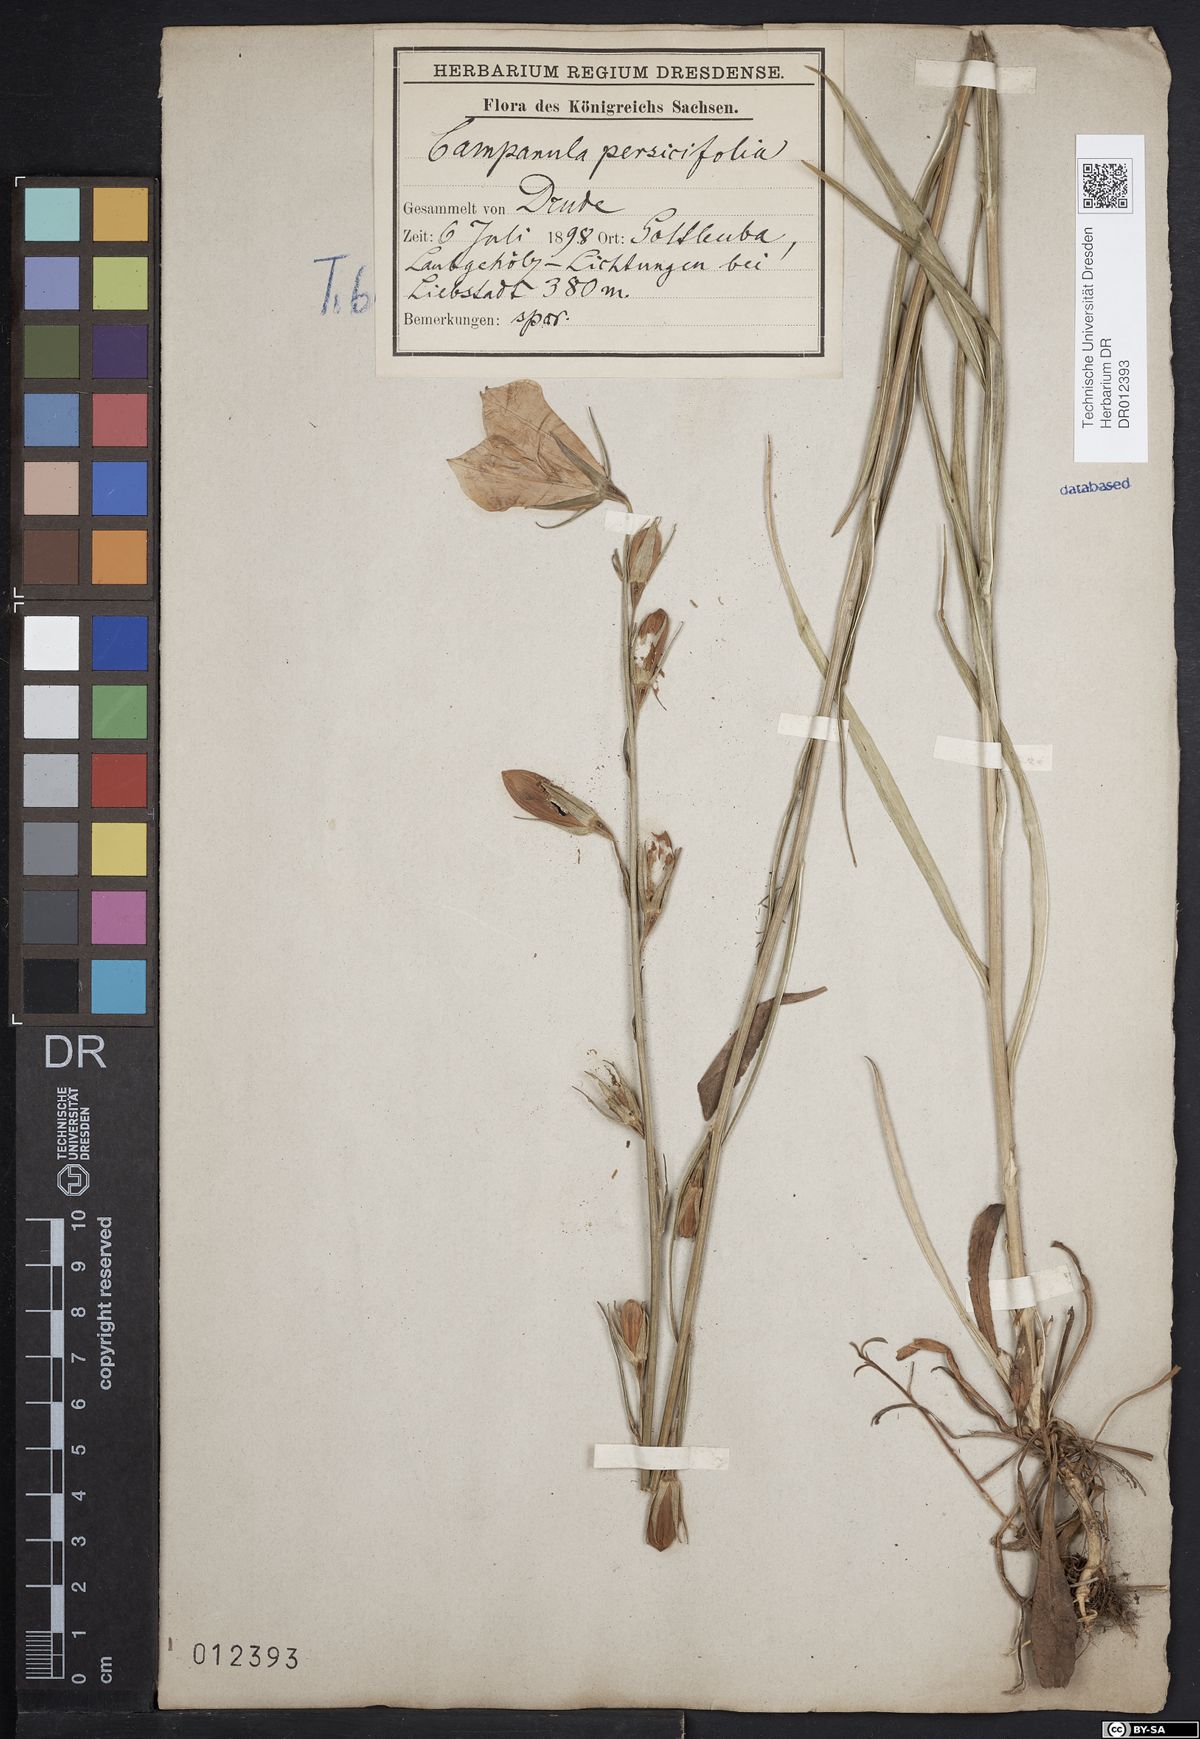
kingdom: Plantae
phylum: Tracheophyta
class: Magnoliopsida
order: Asterales
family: Campanulaceae
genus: Campanula
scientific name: Campanula persicifolia
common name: Peach-leaved bellflower
